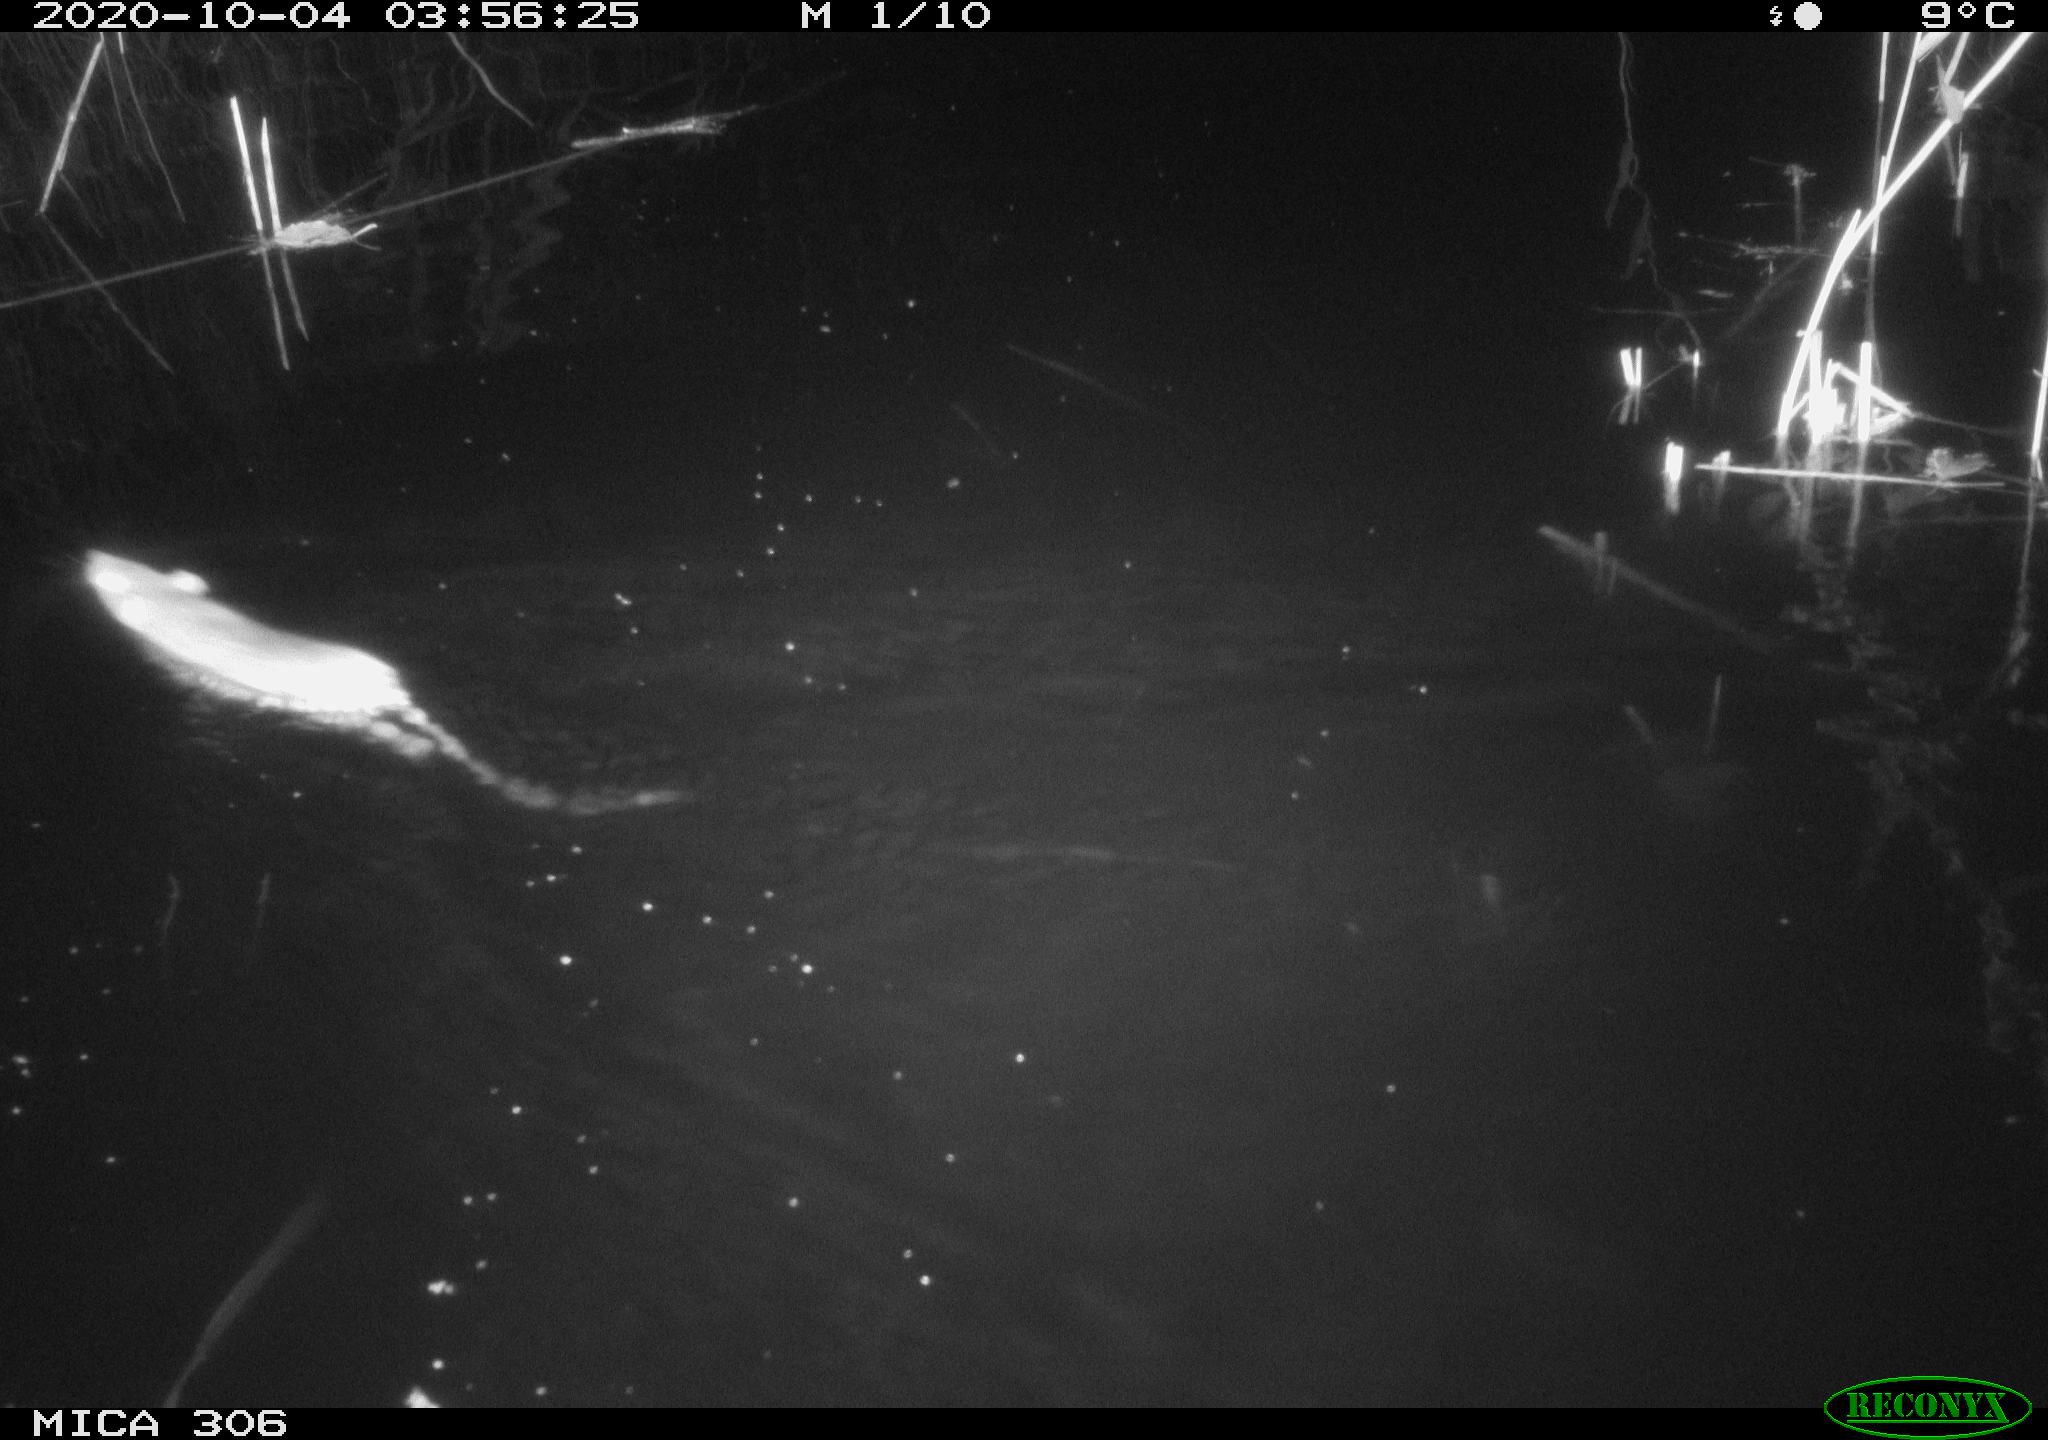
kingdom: Animalia
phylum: Chordata
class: Mammalia
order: Rodentia
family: Muridae
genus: Rattus
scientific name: Rattus norvegicus
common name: Brown rat
